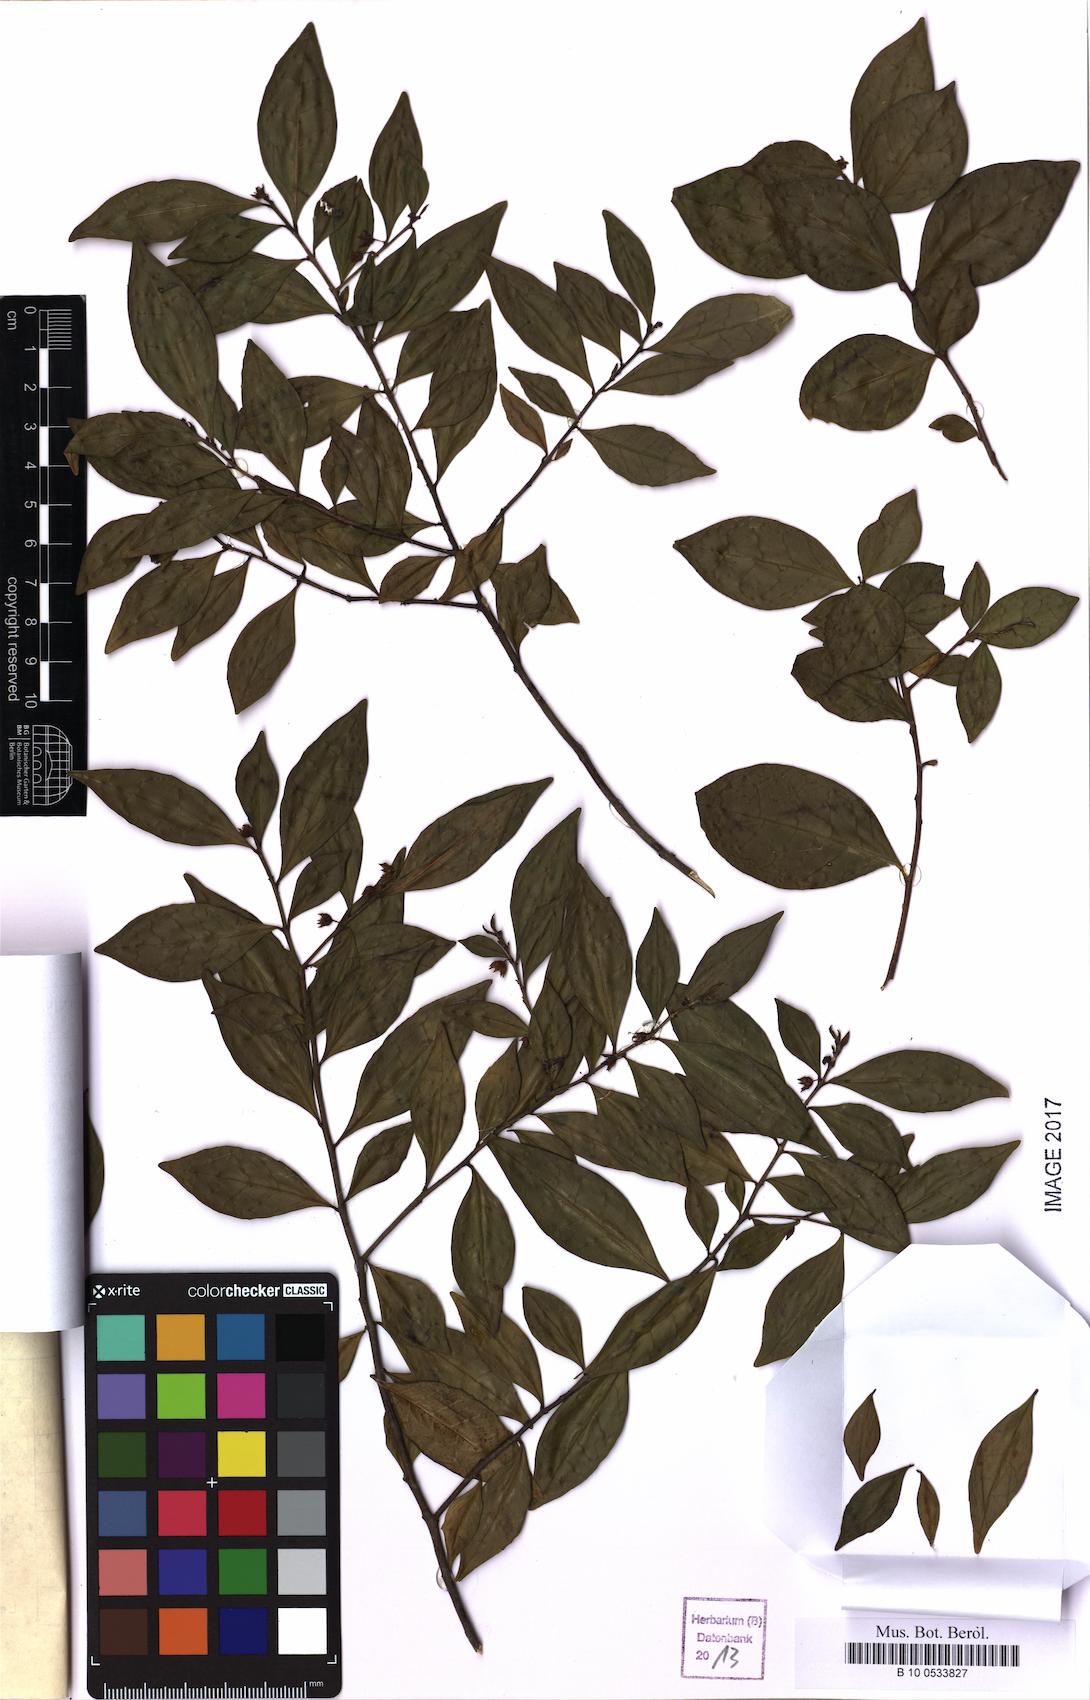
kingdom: Plantae
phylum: Tracheophyta
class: Magnoliopsida
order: Rosales
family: Rhamnaceae
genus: Condalia
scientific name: Condalia maytenoides
